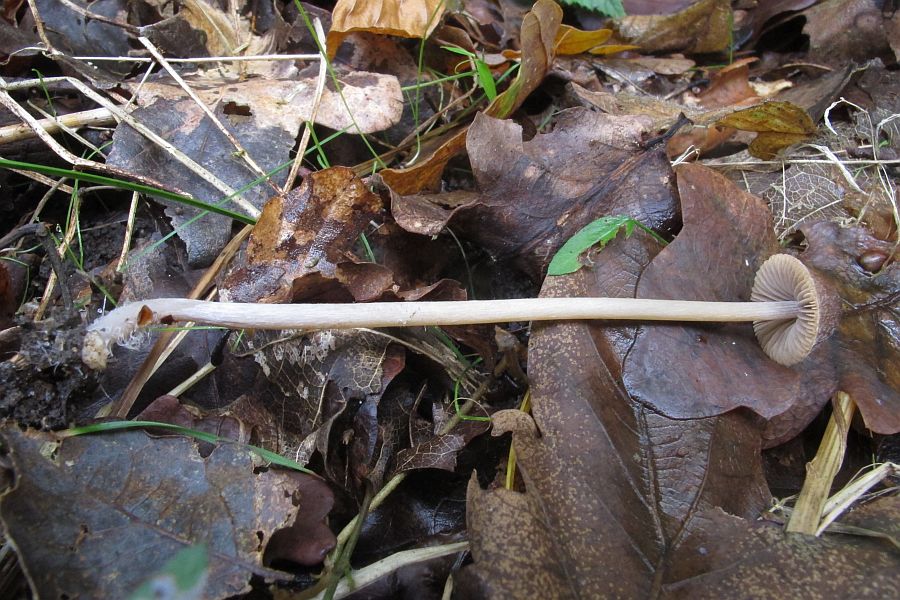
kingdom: Fungi
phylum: Basidiomycota
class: Agaricomycetes
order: Agaricales
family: Psathyrellaceae
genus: Psathyrella
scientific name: Psathyrella microrhiza
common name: rod-mørkhat
